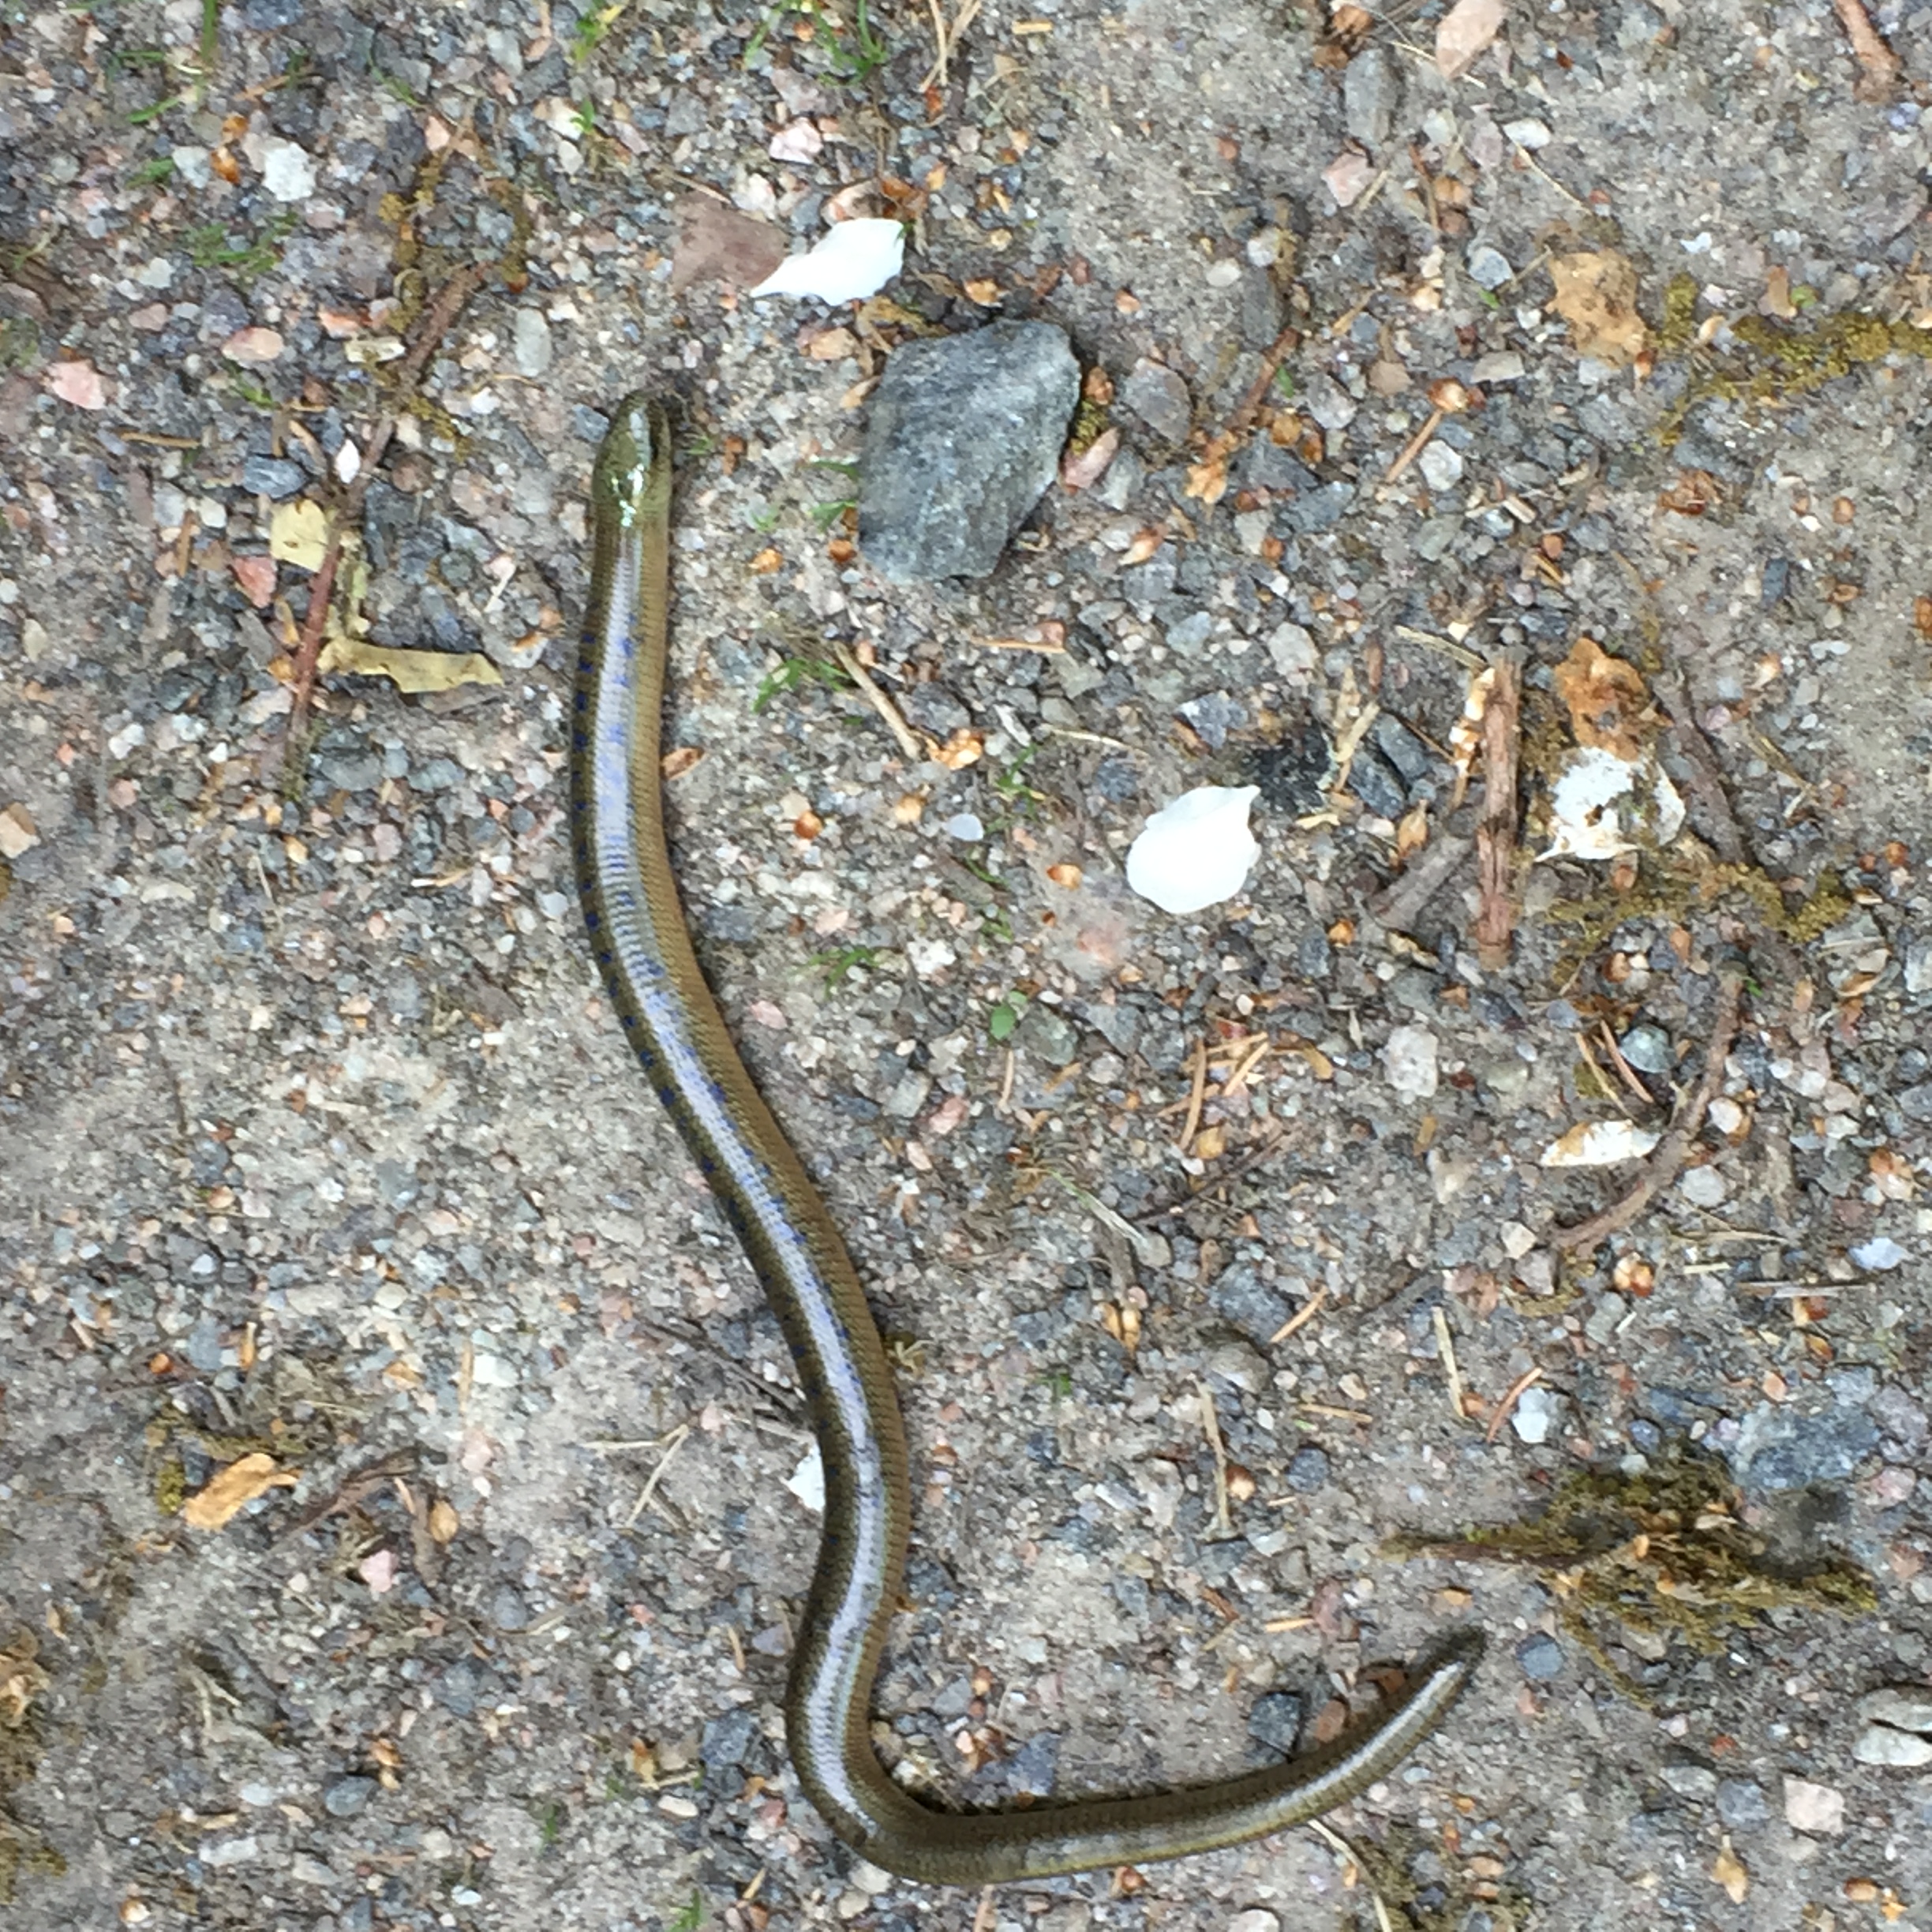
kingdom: Animalia
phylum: Chordata
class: Squamata
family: Anguidae
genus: Anguis
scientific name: Anguis colchica
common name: Slow worm
